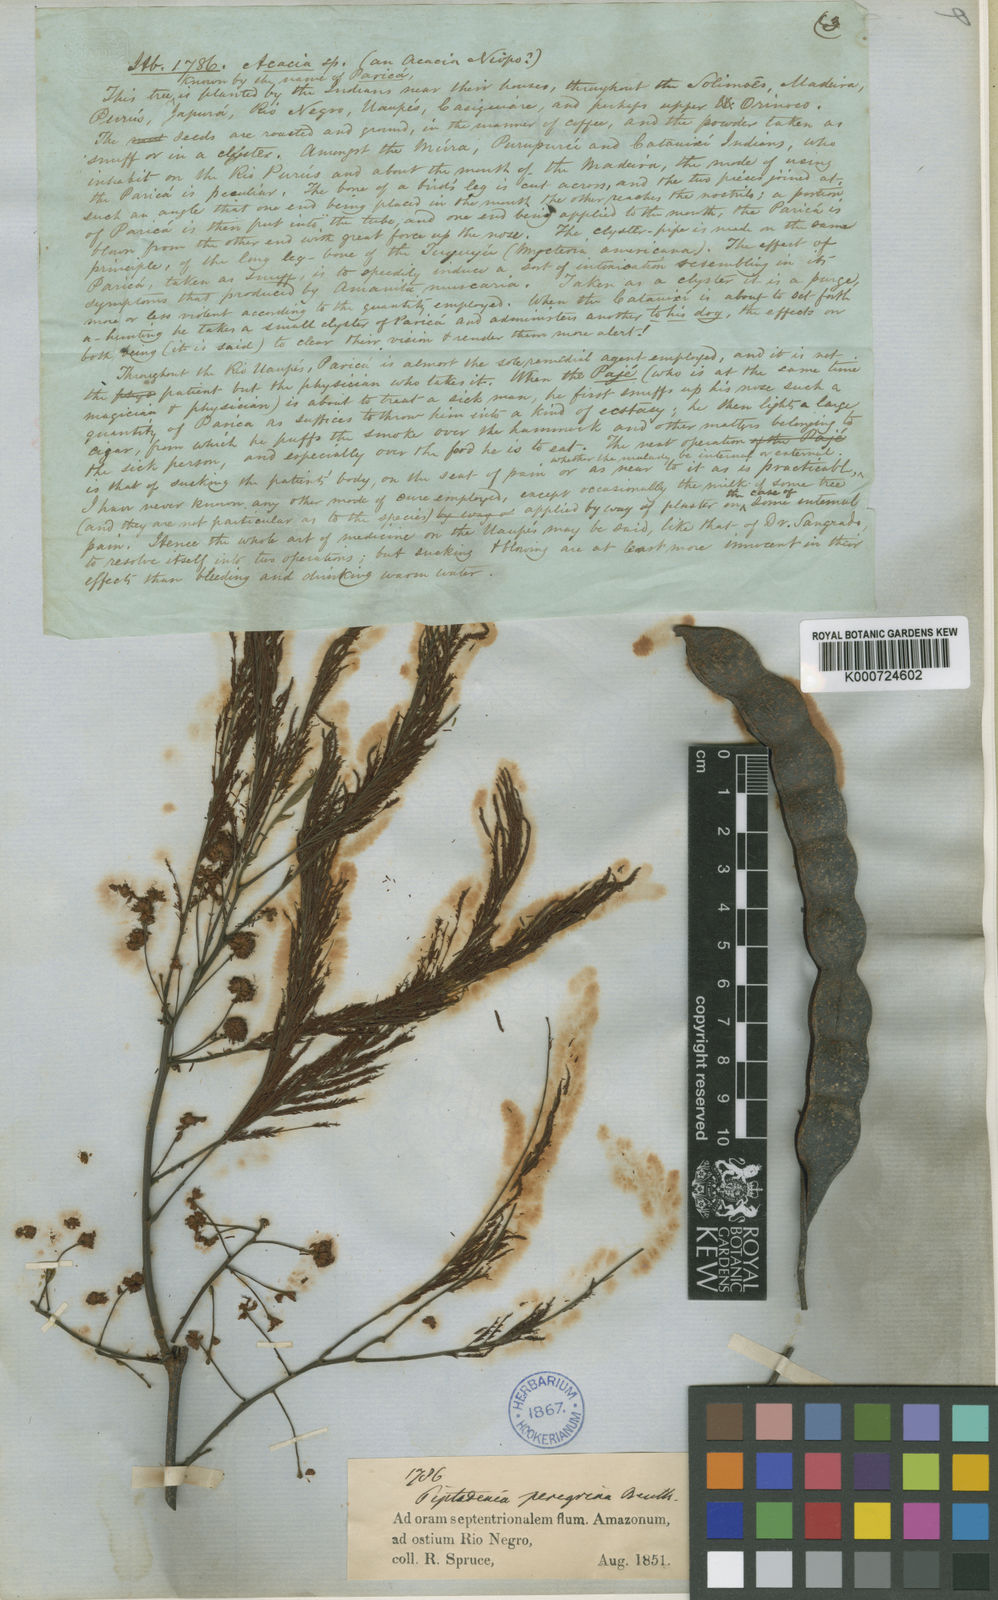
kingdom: Plantae
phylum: Tracheophyta
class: Magnoliopsida
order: Fabales
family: Fabaceae
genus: Anadenanthera
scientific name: Anadenanthera peregrina
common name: Cohoba
